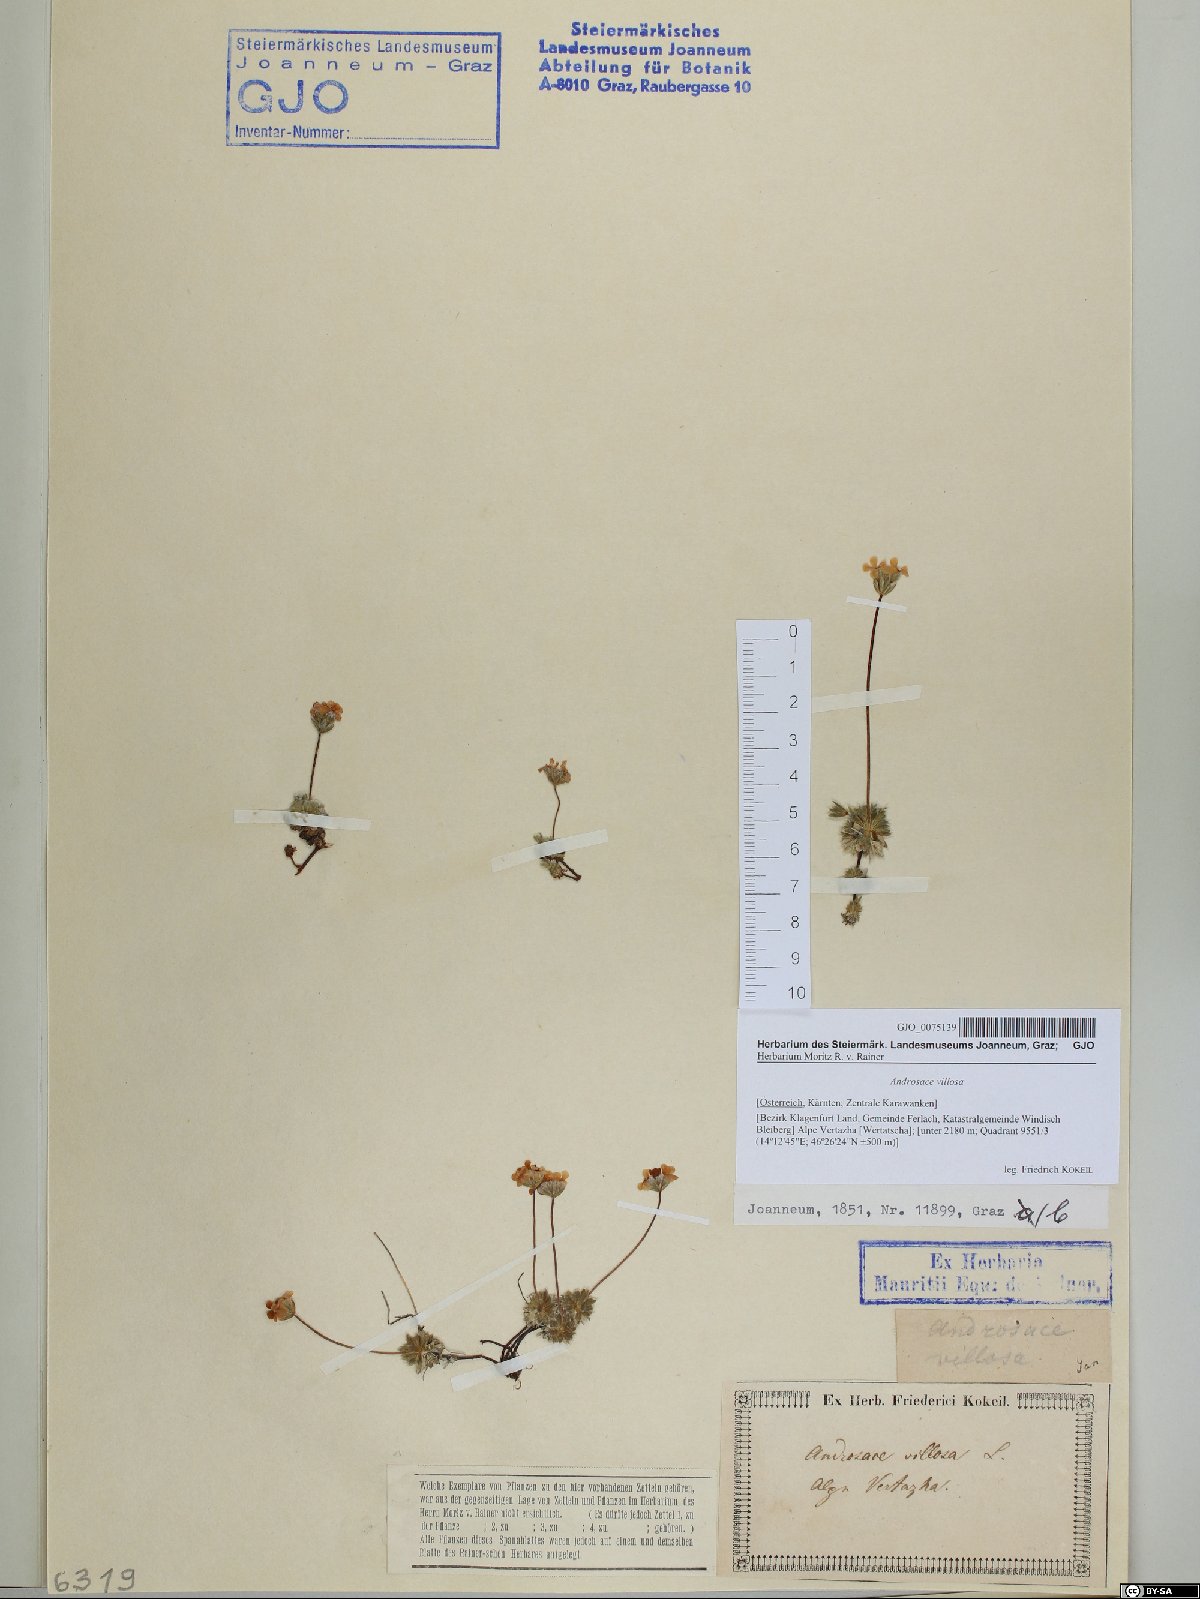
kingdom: Plantae
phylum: Tracheophyta
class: Magnoliopsida
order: Ericales
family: Primulaceae
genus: Androsace
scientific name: Androsace villosa
